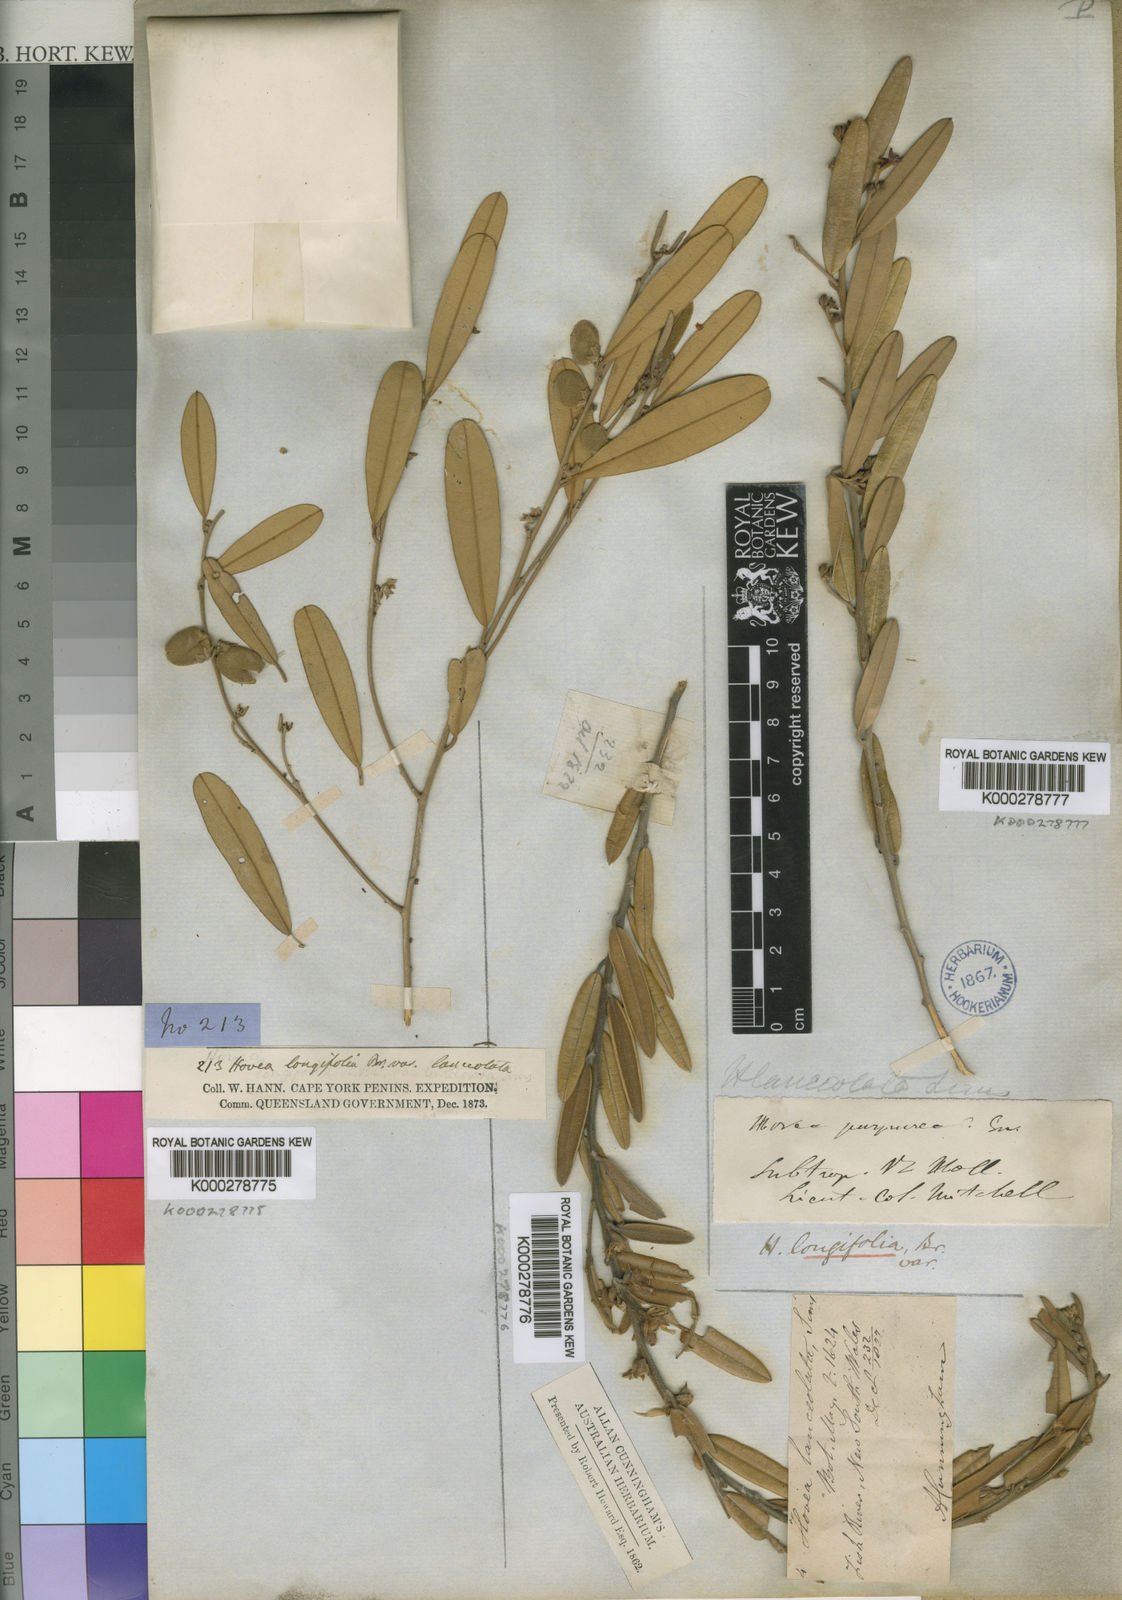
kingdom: Plantae
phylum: Tracheophyta
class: Magnoliopsida
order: Fabales
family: Fabaceae
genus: Hovea
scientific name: Hovea lanceolata
